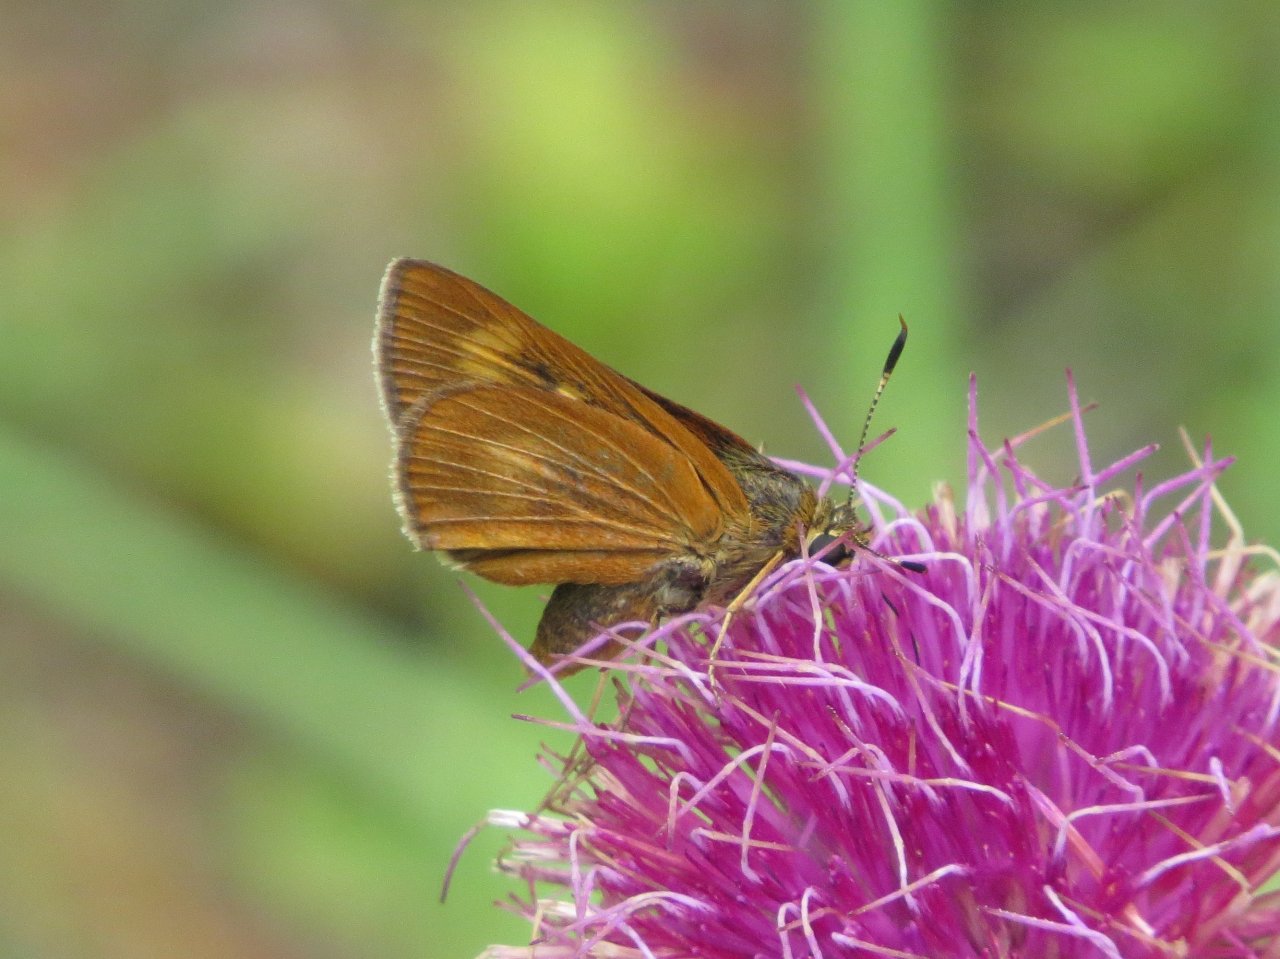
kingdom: Animalia
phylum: Arthropoda
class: Insecta
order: Lepidoptera
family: Hesperiidae
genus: Problema
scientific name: Problema byssus
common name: Byssus Skipper
